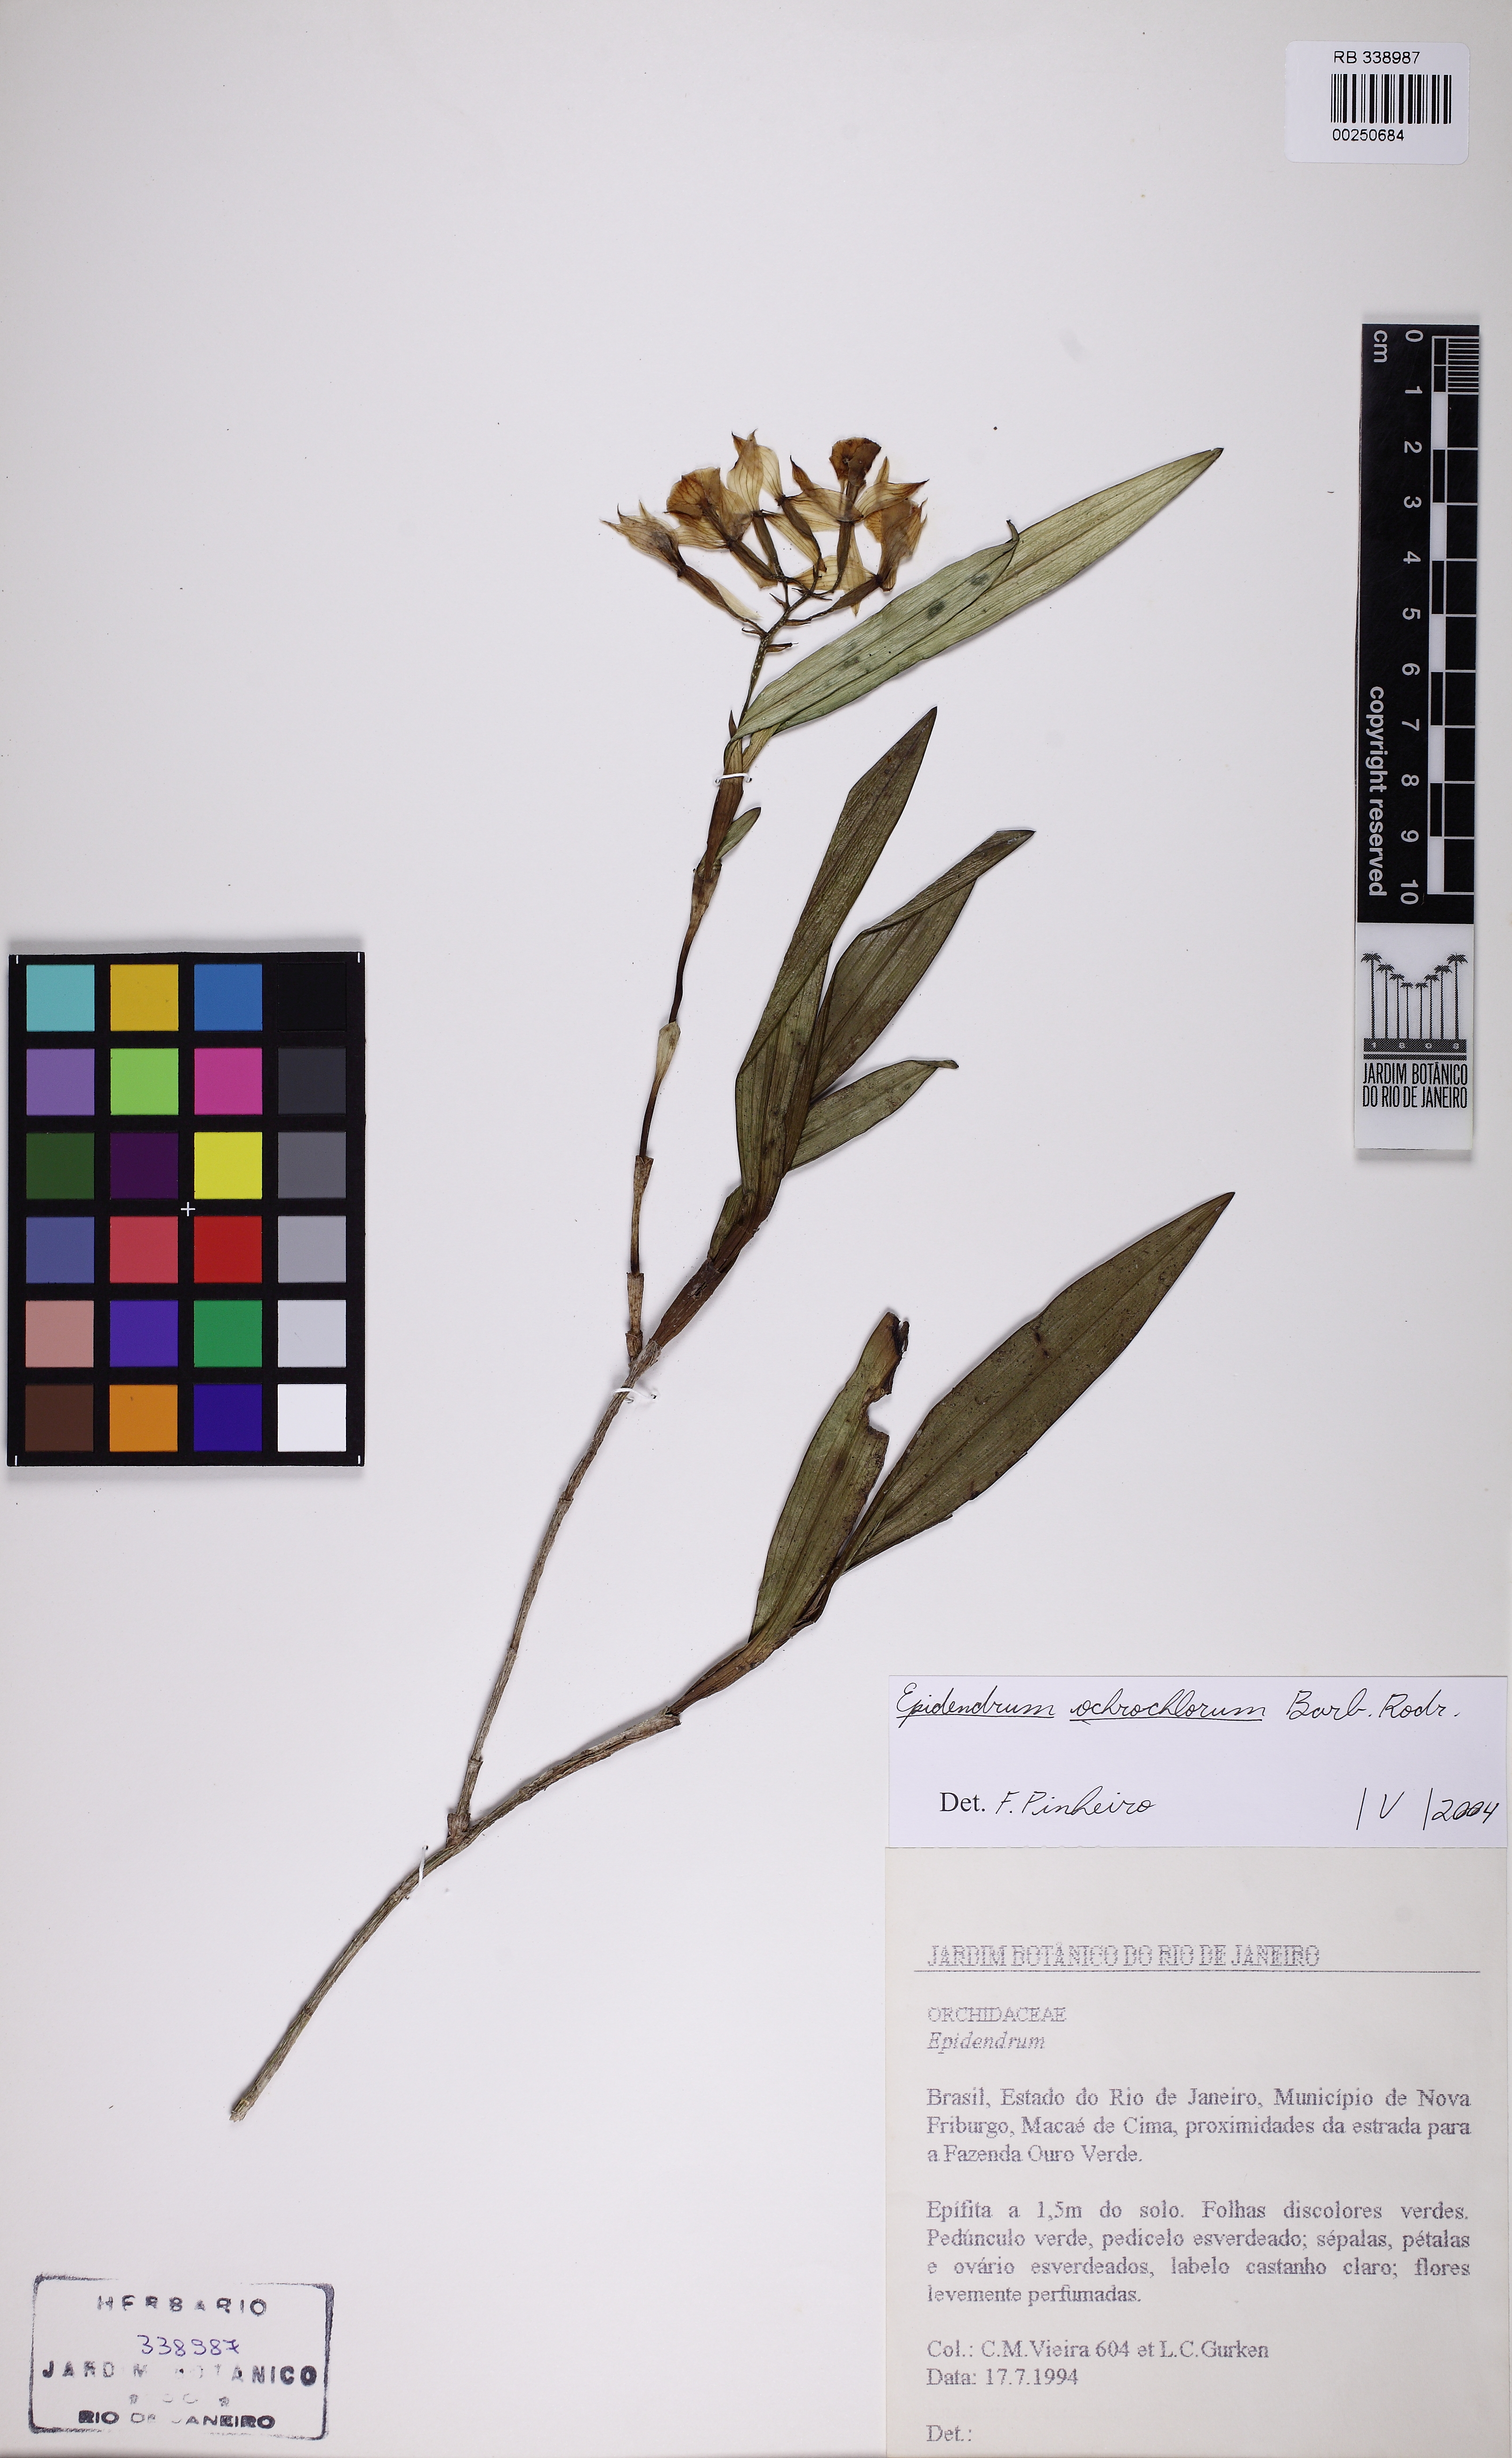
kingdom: Plantae
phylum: Tracheophyta
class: Liliopsida
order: Asparagales
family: Orchidaceae
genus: Epidendrum
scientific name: Epidendrum obergii
